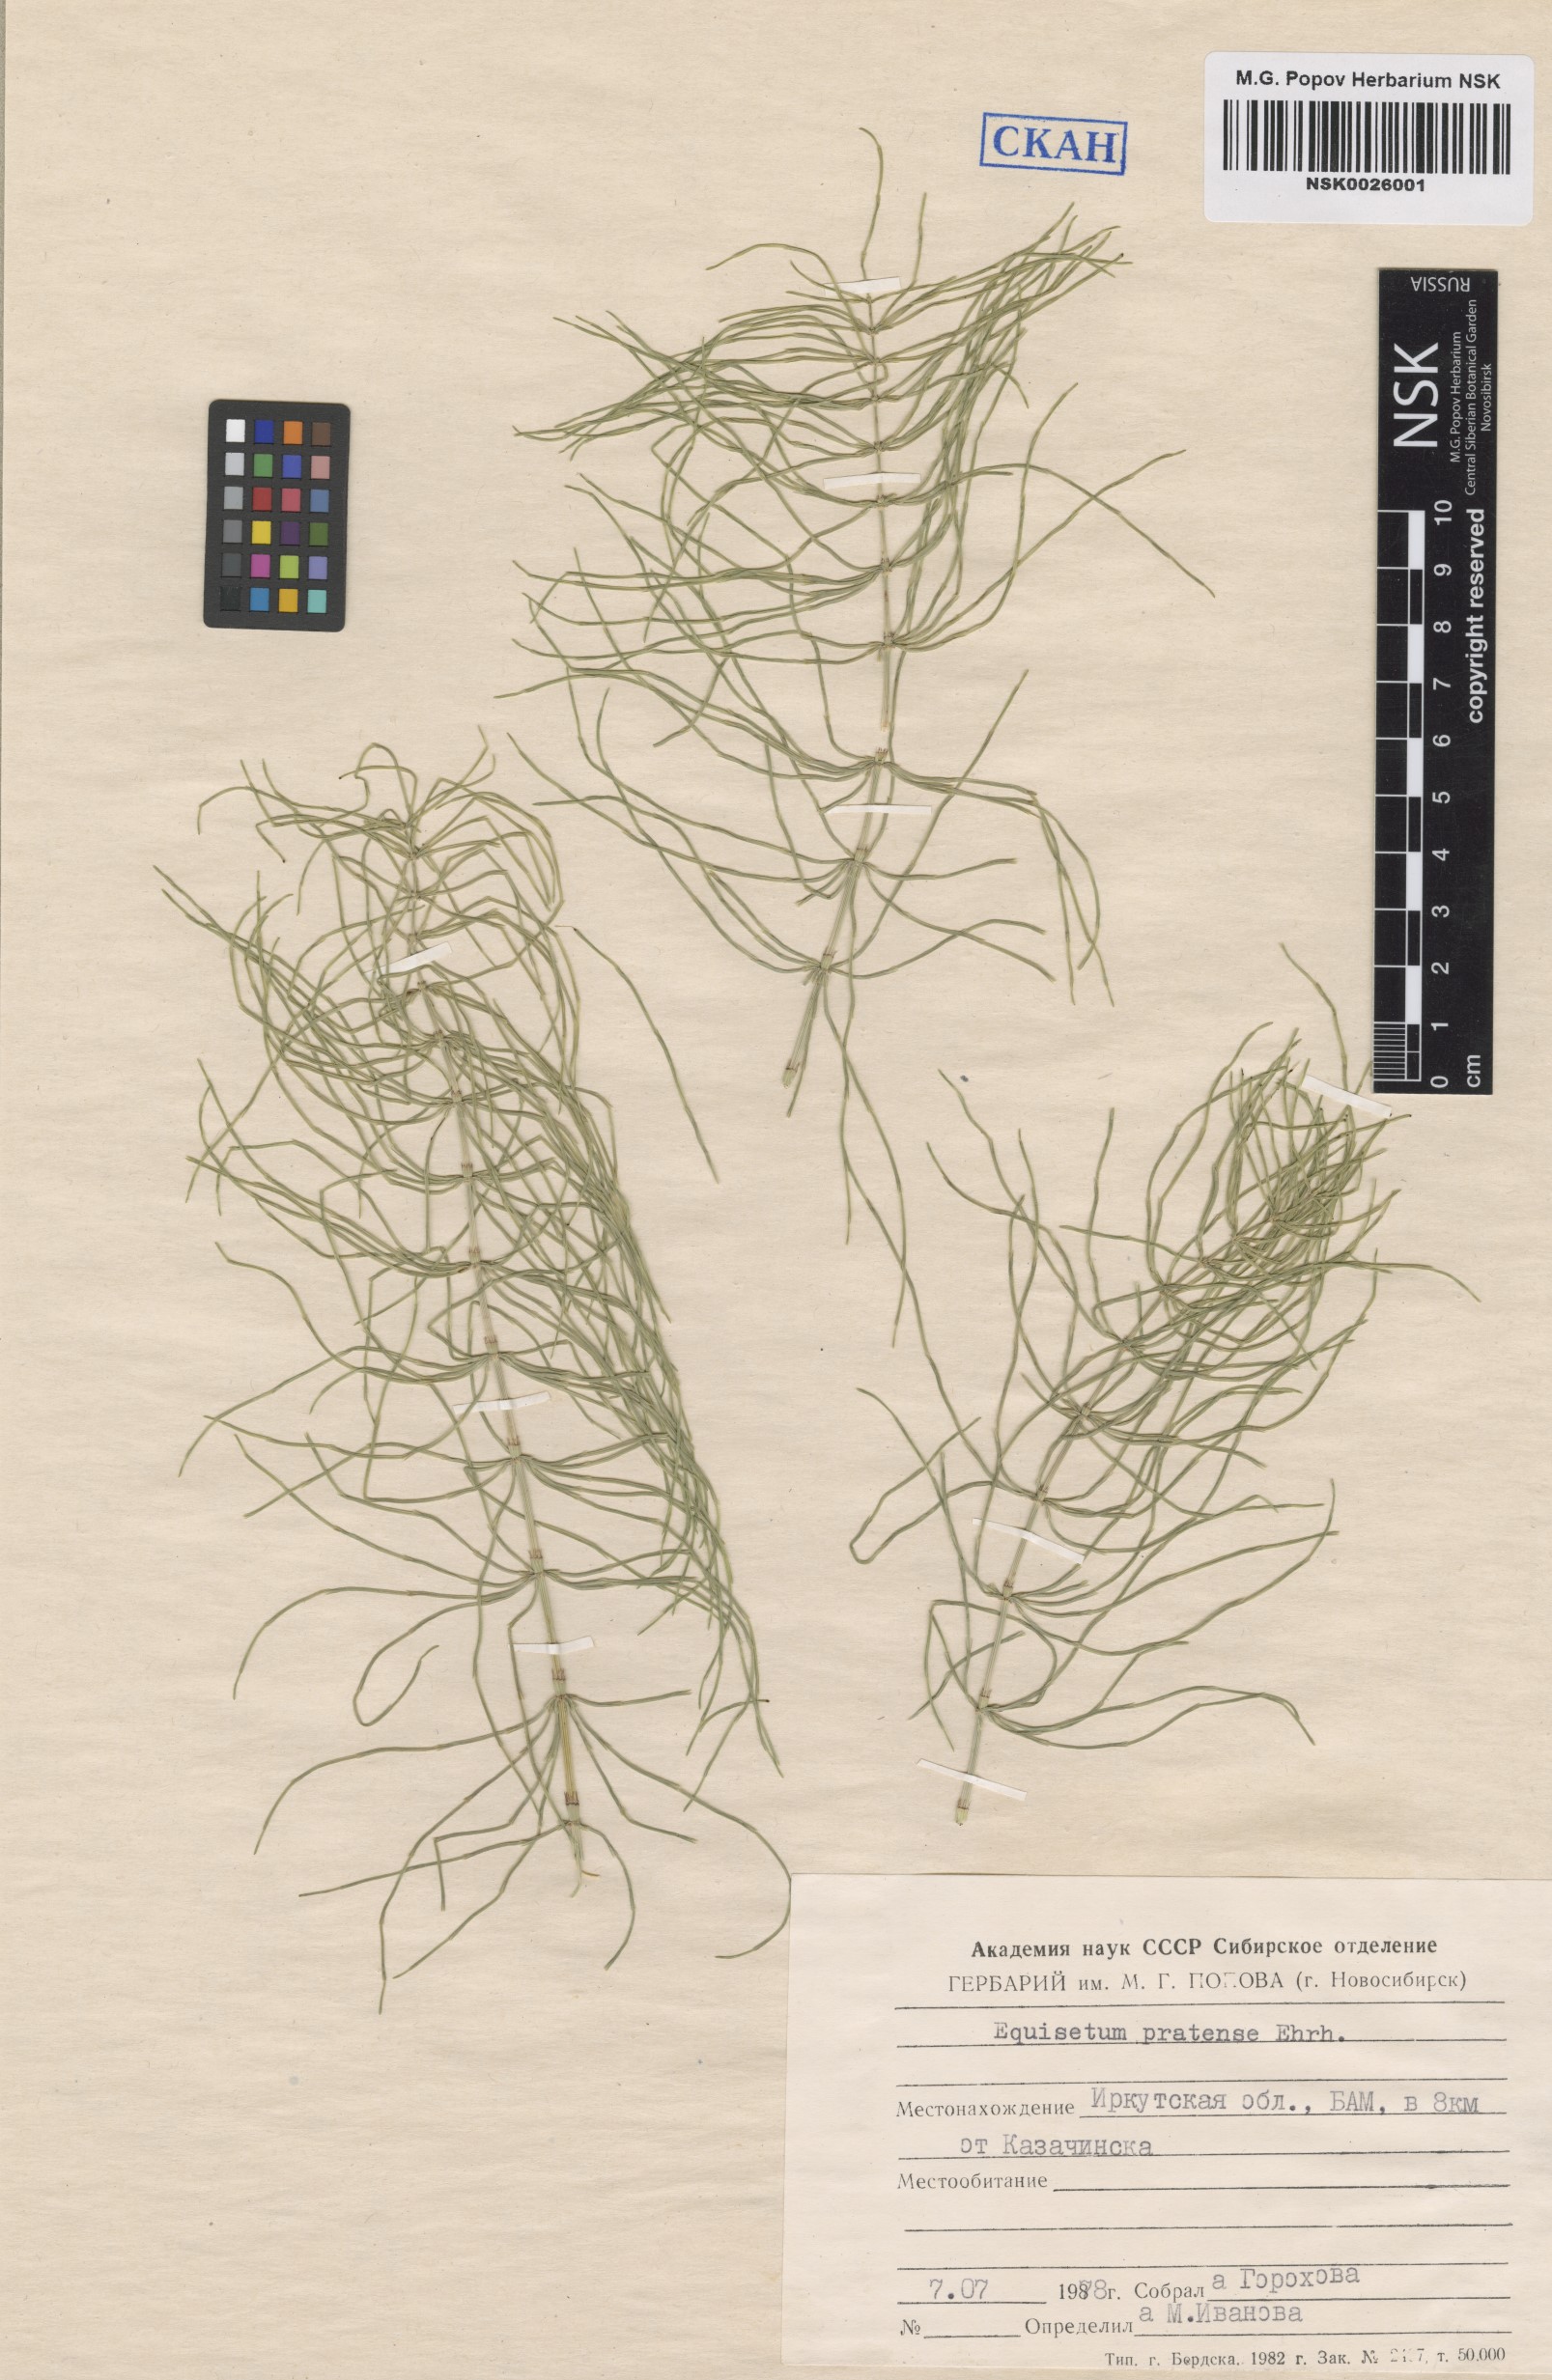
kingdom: Plantae
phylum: Tracheophyta
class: Polypodiopsida
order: Equisetales
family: Equisetaceae
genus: Equisetum
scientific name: Equisetum pratense
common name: Meadow horsetail
